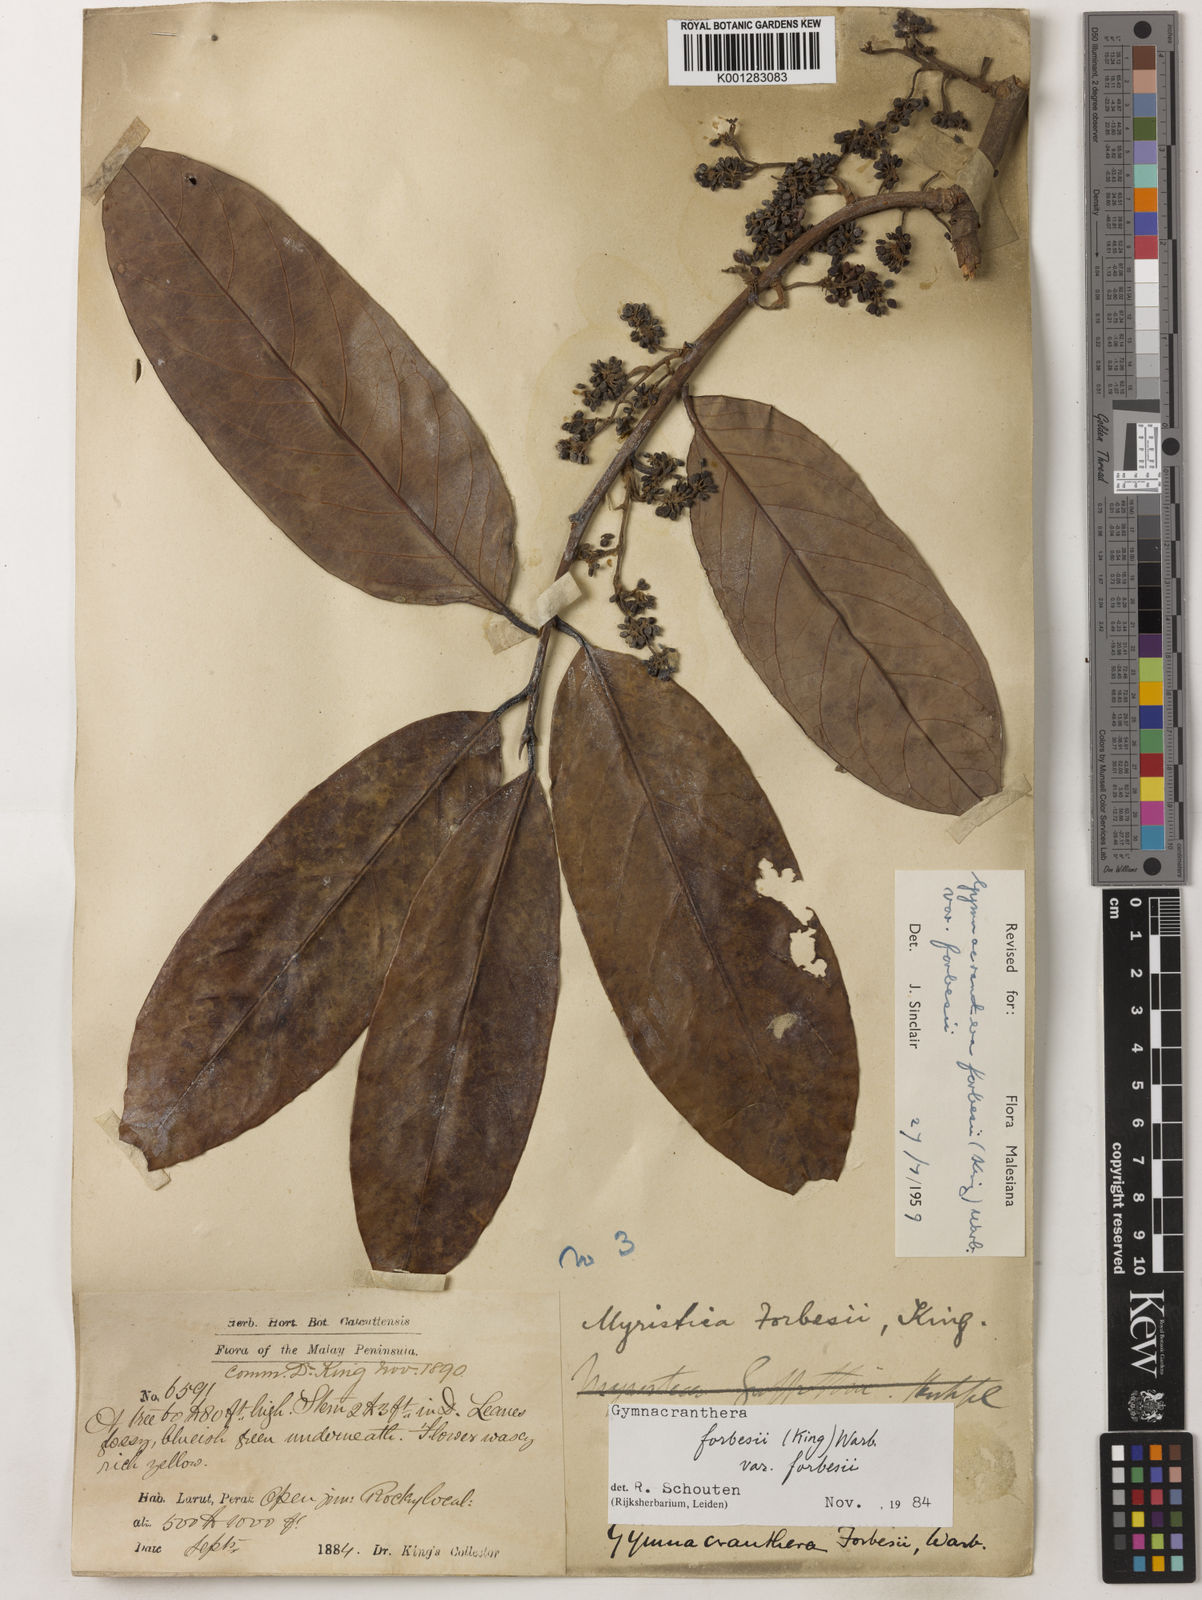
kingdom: Plantae
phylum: Tracheophyta
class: Magnoliopsida
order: Magnoliales
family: Myristicaceae
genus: Gymnacranthera
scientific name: Gymnacranthera forbesii
